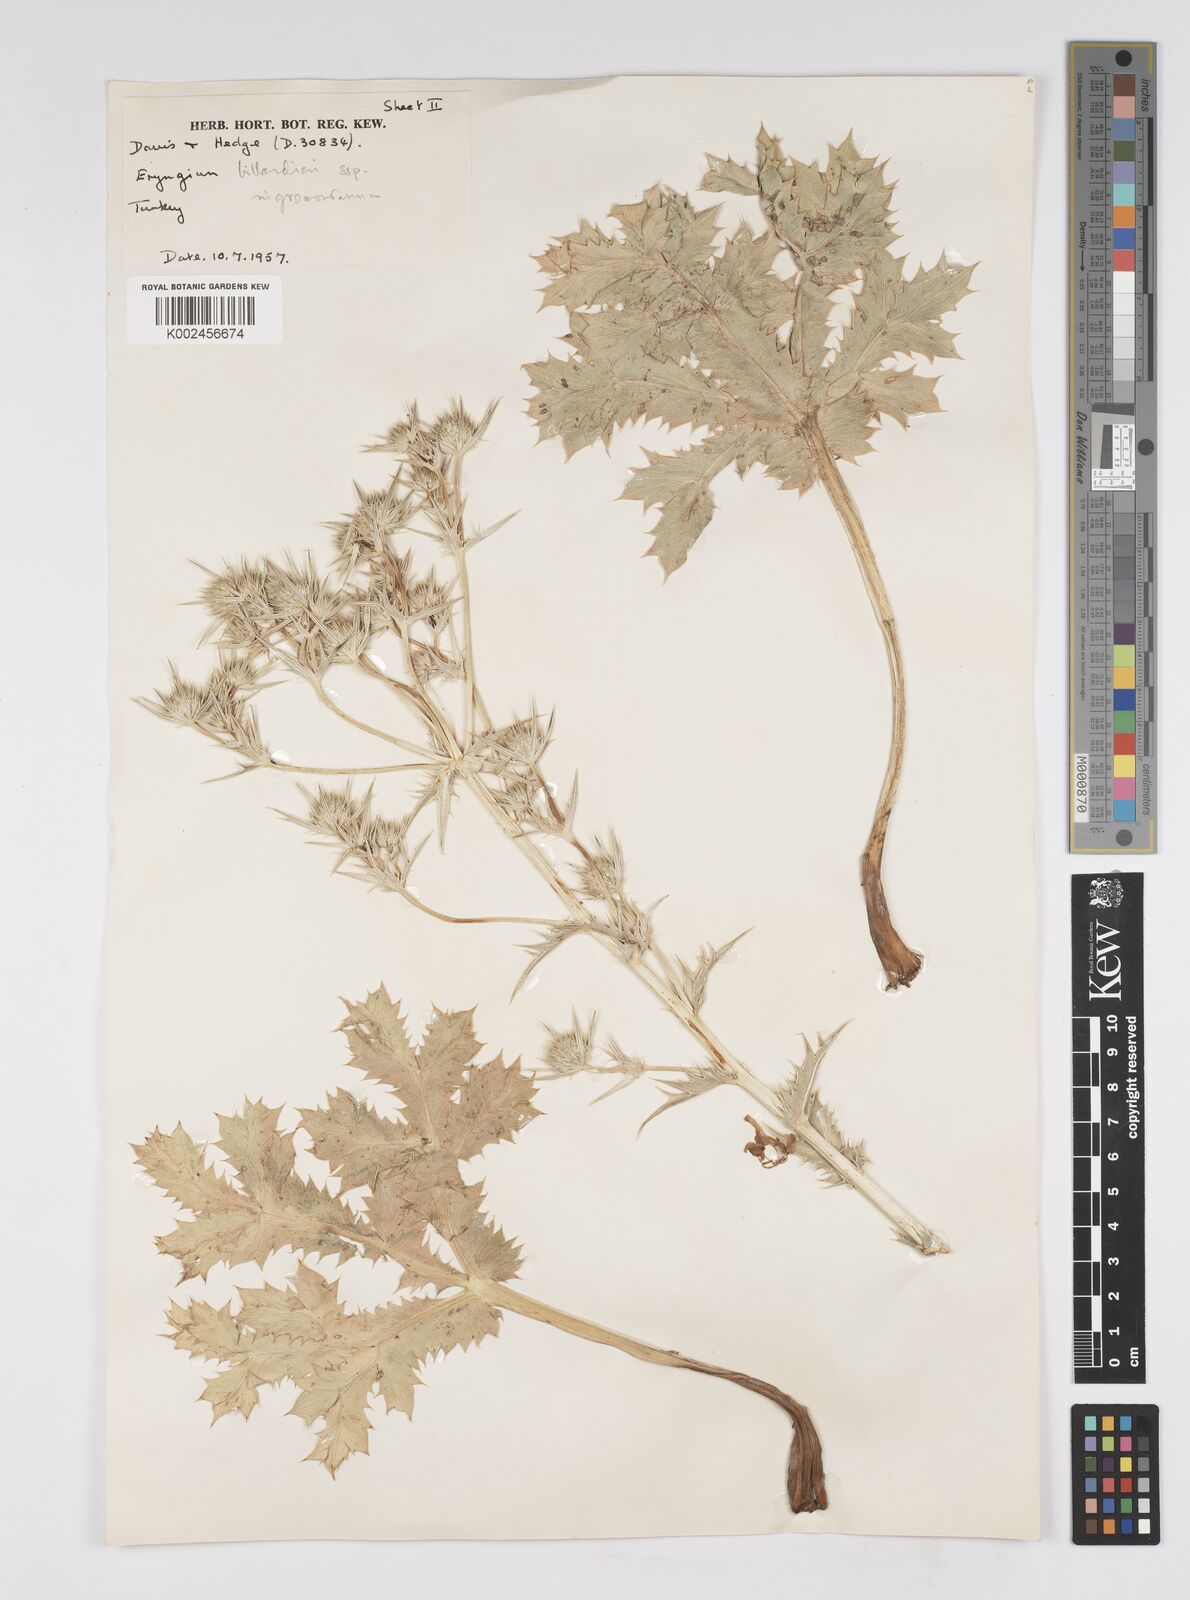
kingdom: Plantae
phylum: Tracheophyta
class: Magnoliopsida
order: Apiales
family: Apiaceae
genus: Eryngium
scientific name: Eryngium billardierei
